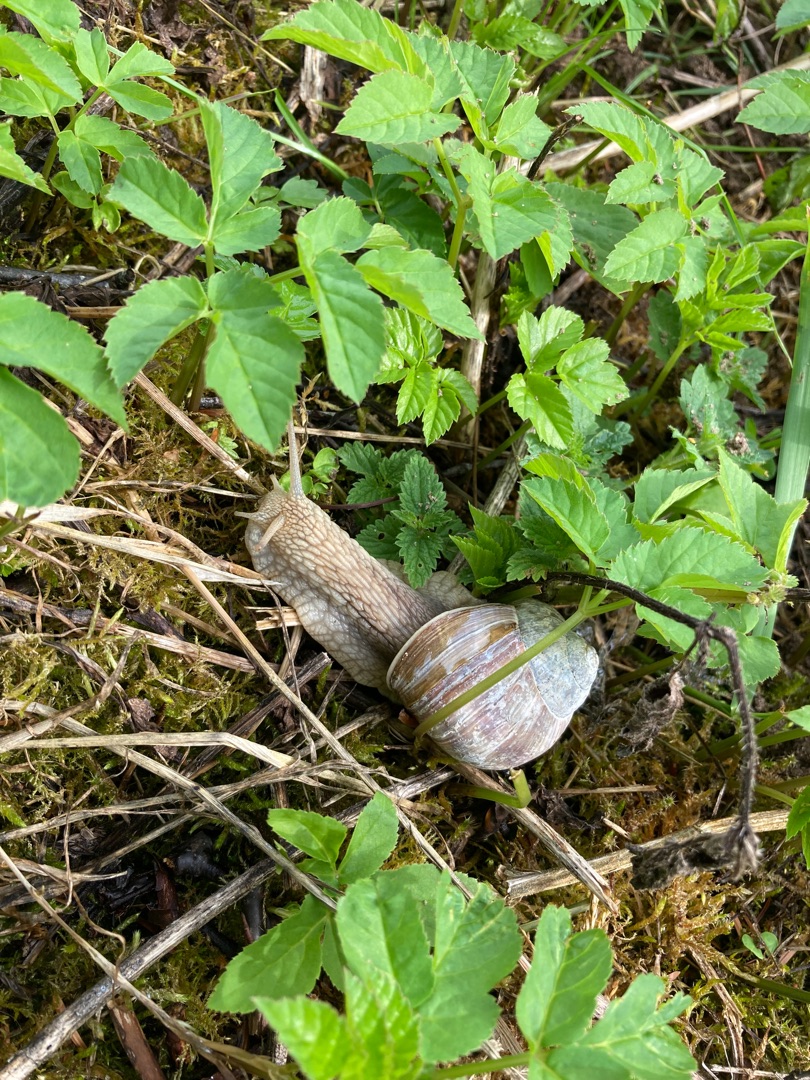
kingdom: Animalia
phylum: Mollusca
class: Gastropoda
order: Stylommatophora
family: Helicidae
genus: Helix
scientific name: Helix pomatia
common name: Vinbjergsnegl
